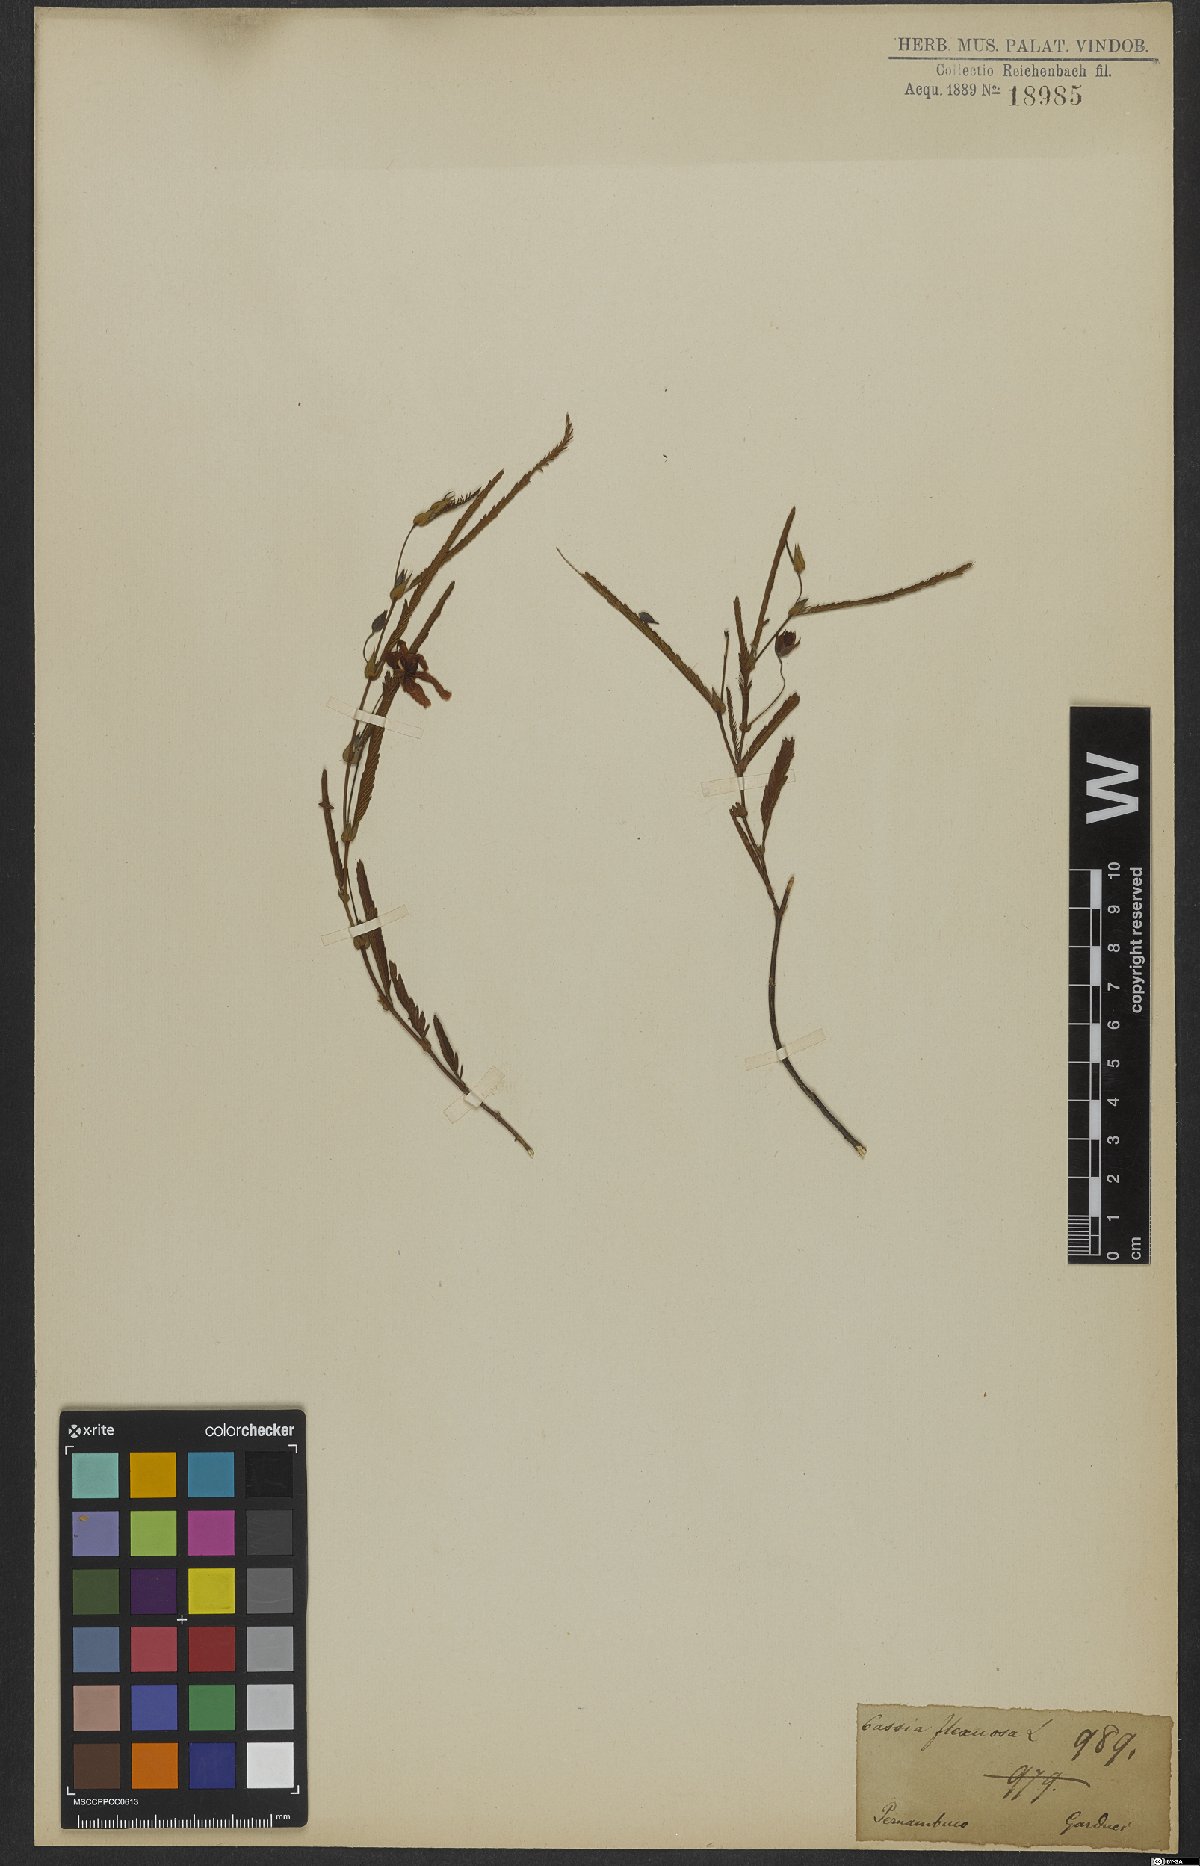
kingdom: Plantae
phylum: Tracheophyta
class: Magnoliopsida
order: Fabales
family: Fabaceae
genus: Chamaecrista
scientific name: Chamaecrista flexuosa
